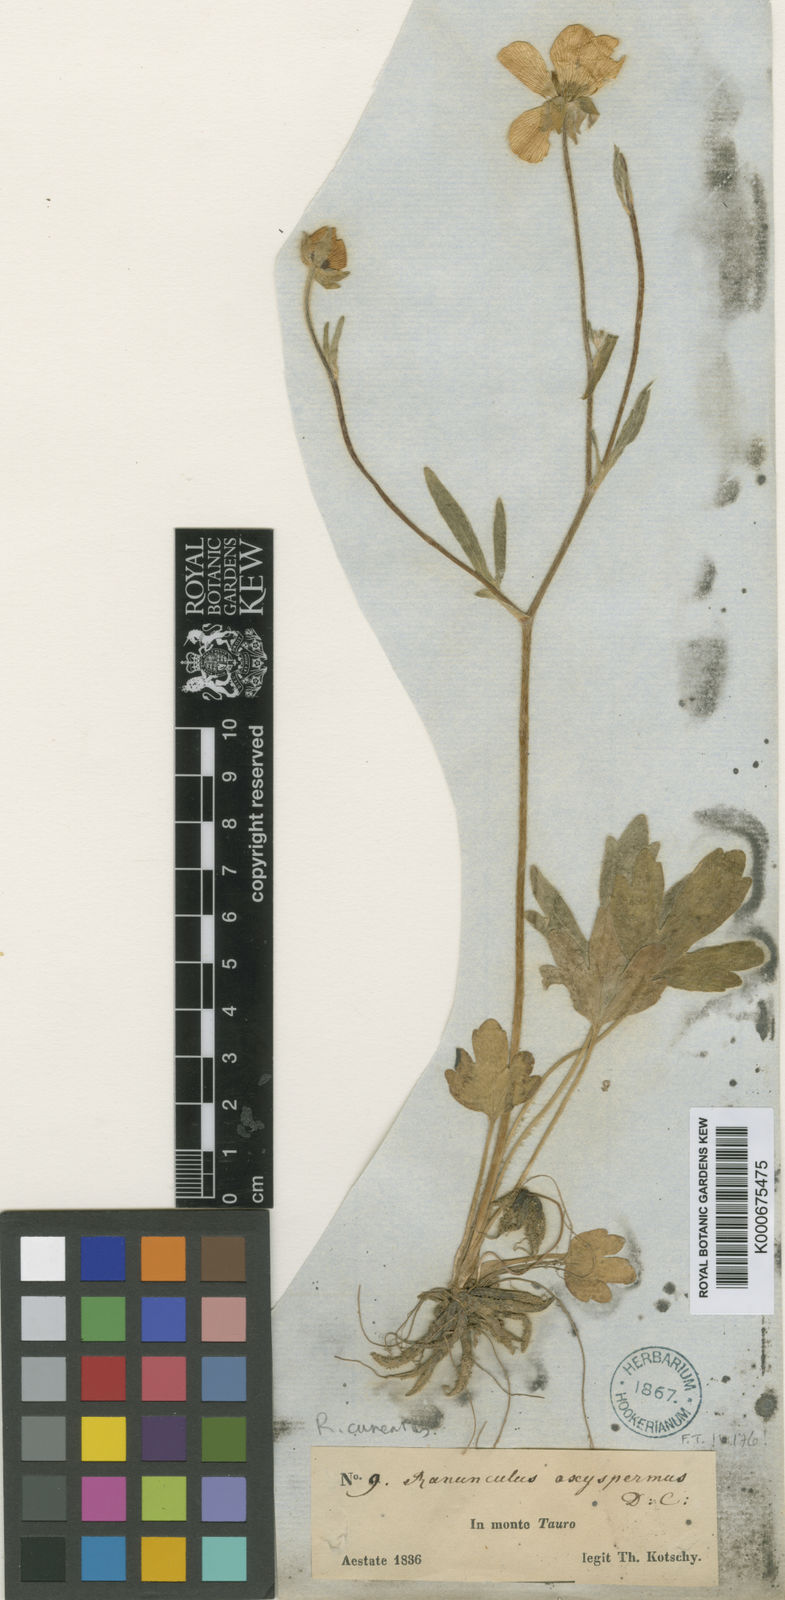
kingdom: Plantae
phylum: Tracheophyta
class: Magnoliopsida
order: Ranunculales
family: Ranunculaceae
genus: Ranunculus
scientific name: Ranunculus neocuneatus
